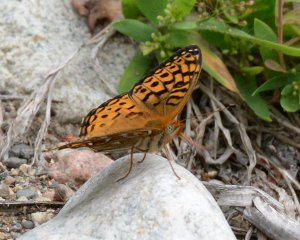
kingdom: Animalia
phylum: Arthropoda
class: Insecta
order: Lepidoptera
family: Nymphalidae
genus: Speyeria
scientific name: Speyeria atlantis
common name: Atlantis Fritillary
